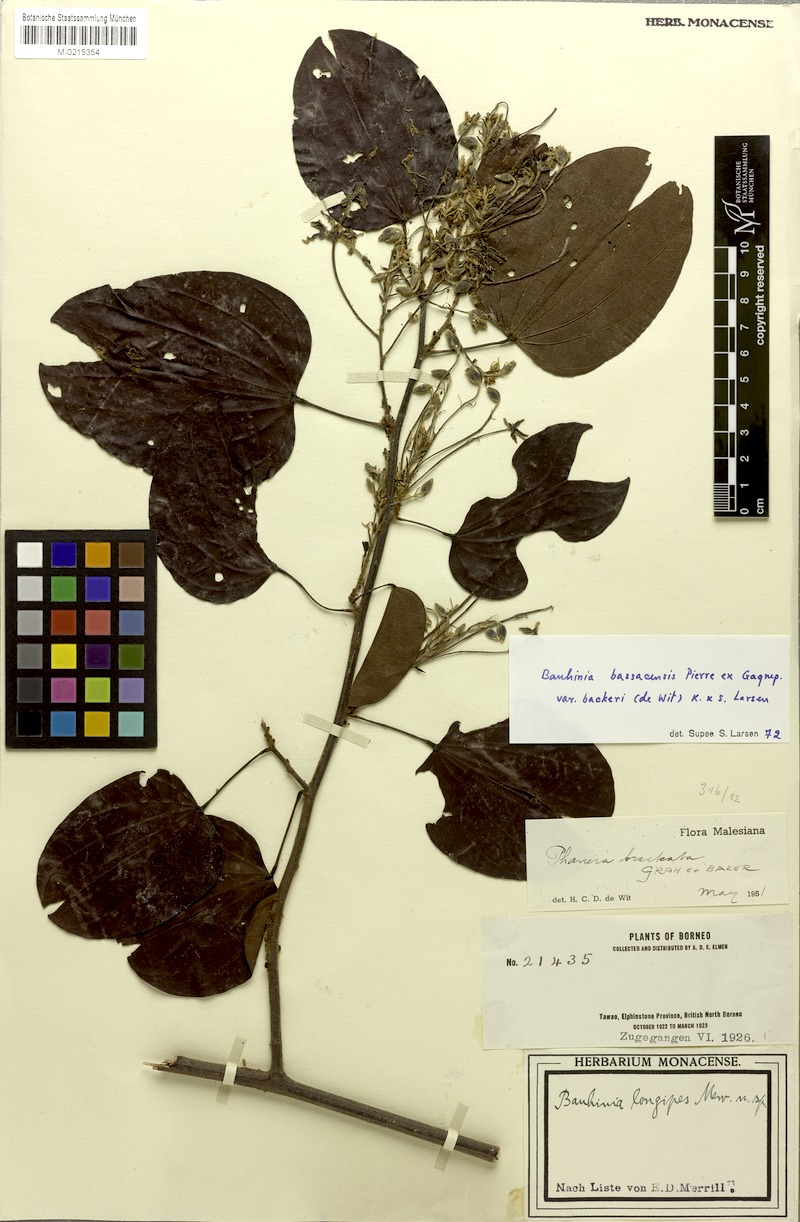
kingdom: Plantae
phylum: Tracheophyta
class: Magnoliopsida
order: Fabales
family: Fabaceae
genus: Phanera
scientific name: Phanera bassacensis
